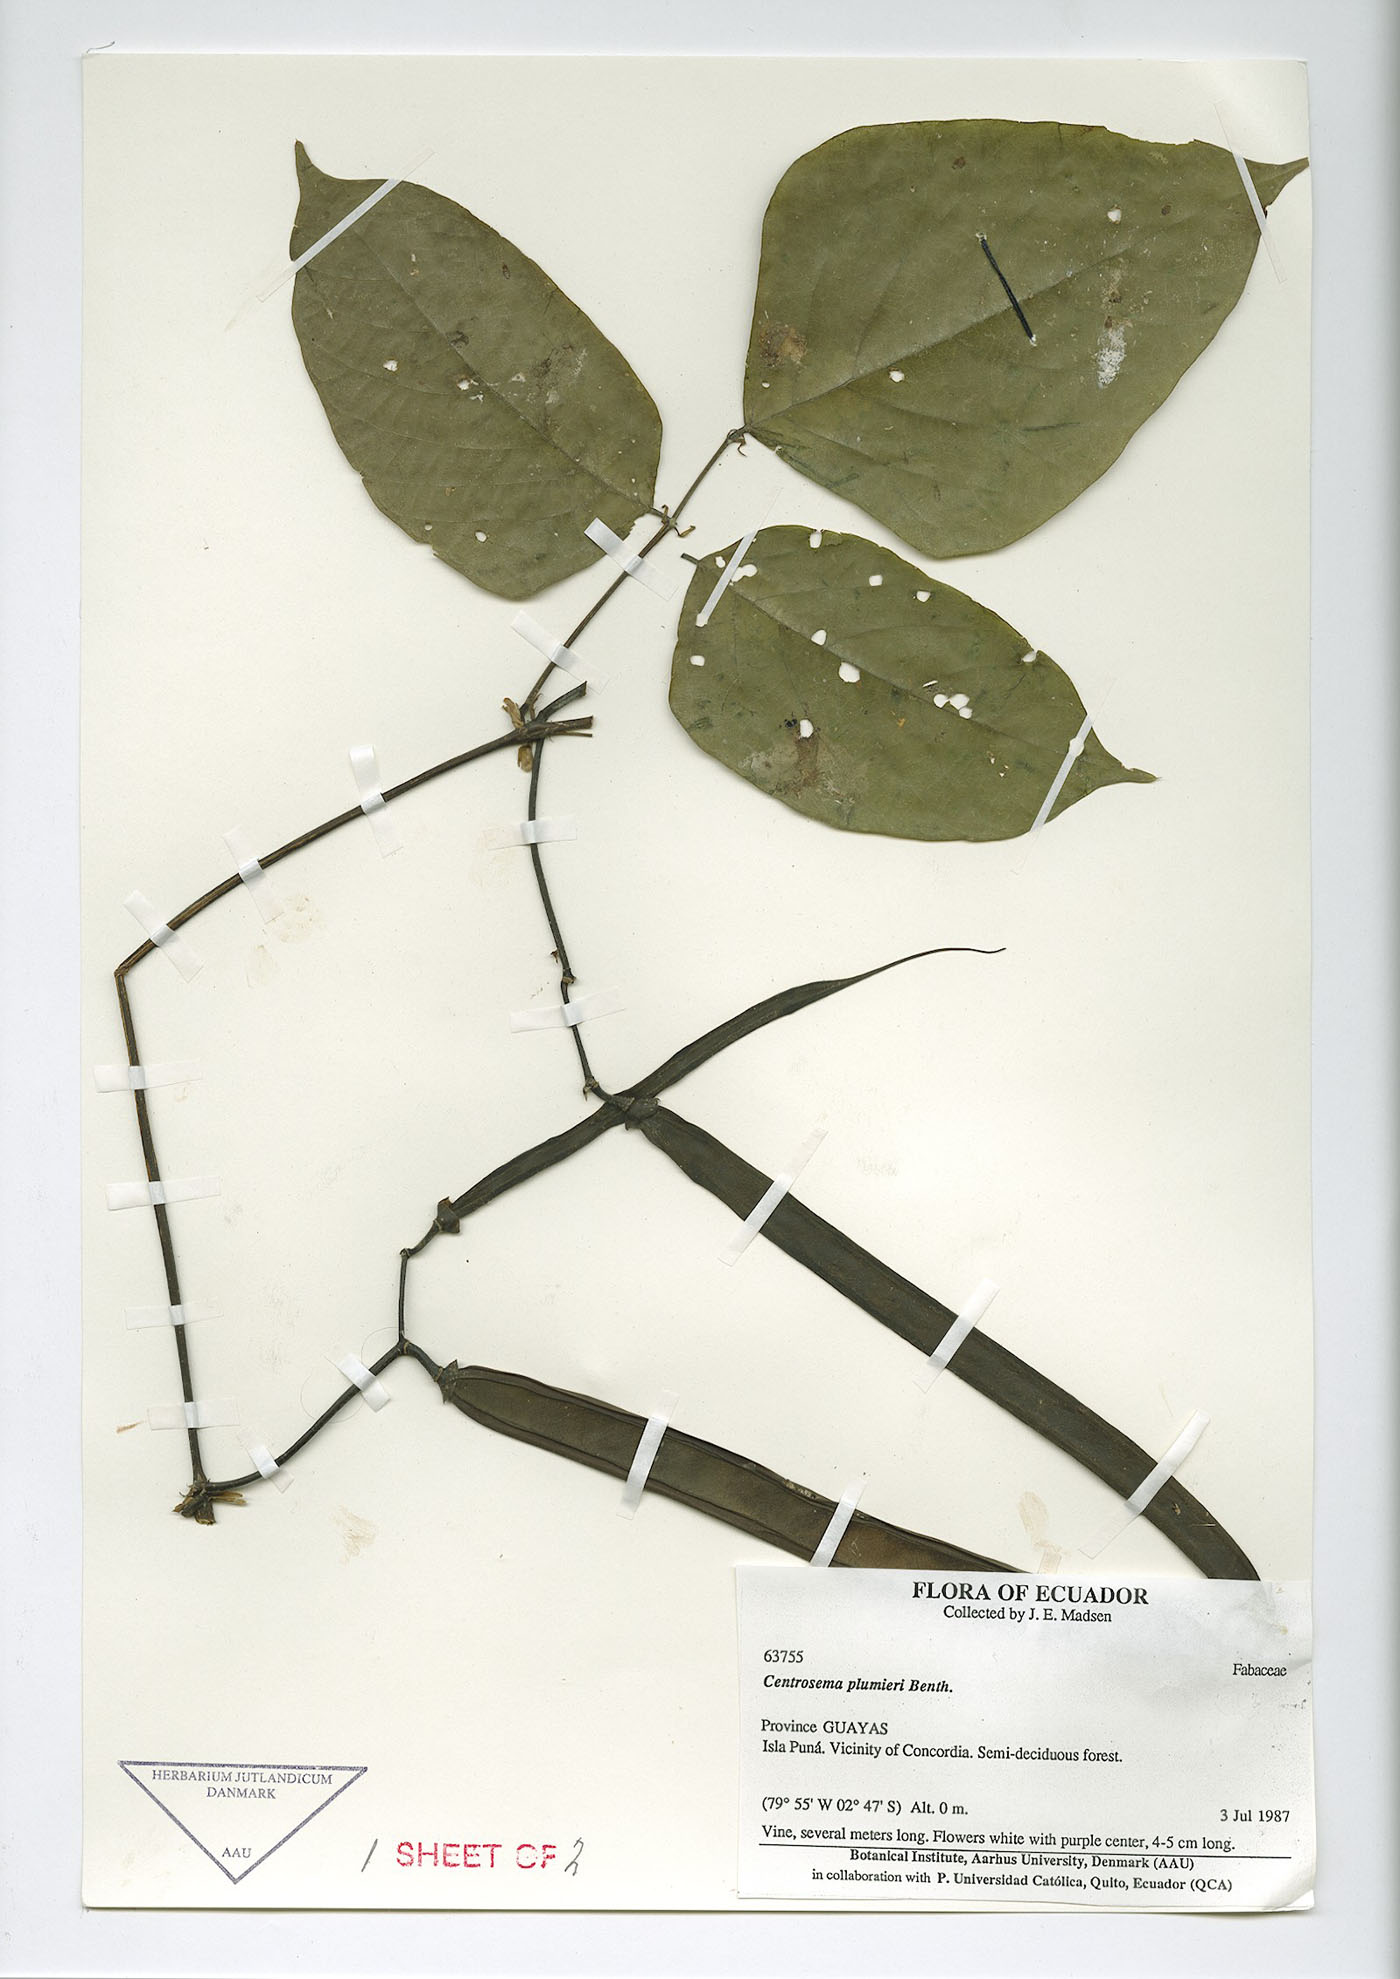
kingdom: Plantae
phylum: Tracheophyta
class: Magnoliopsida
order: Fabales
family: Fabaceae
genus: Centrosema
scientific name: Centrosema plumieri
